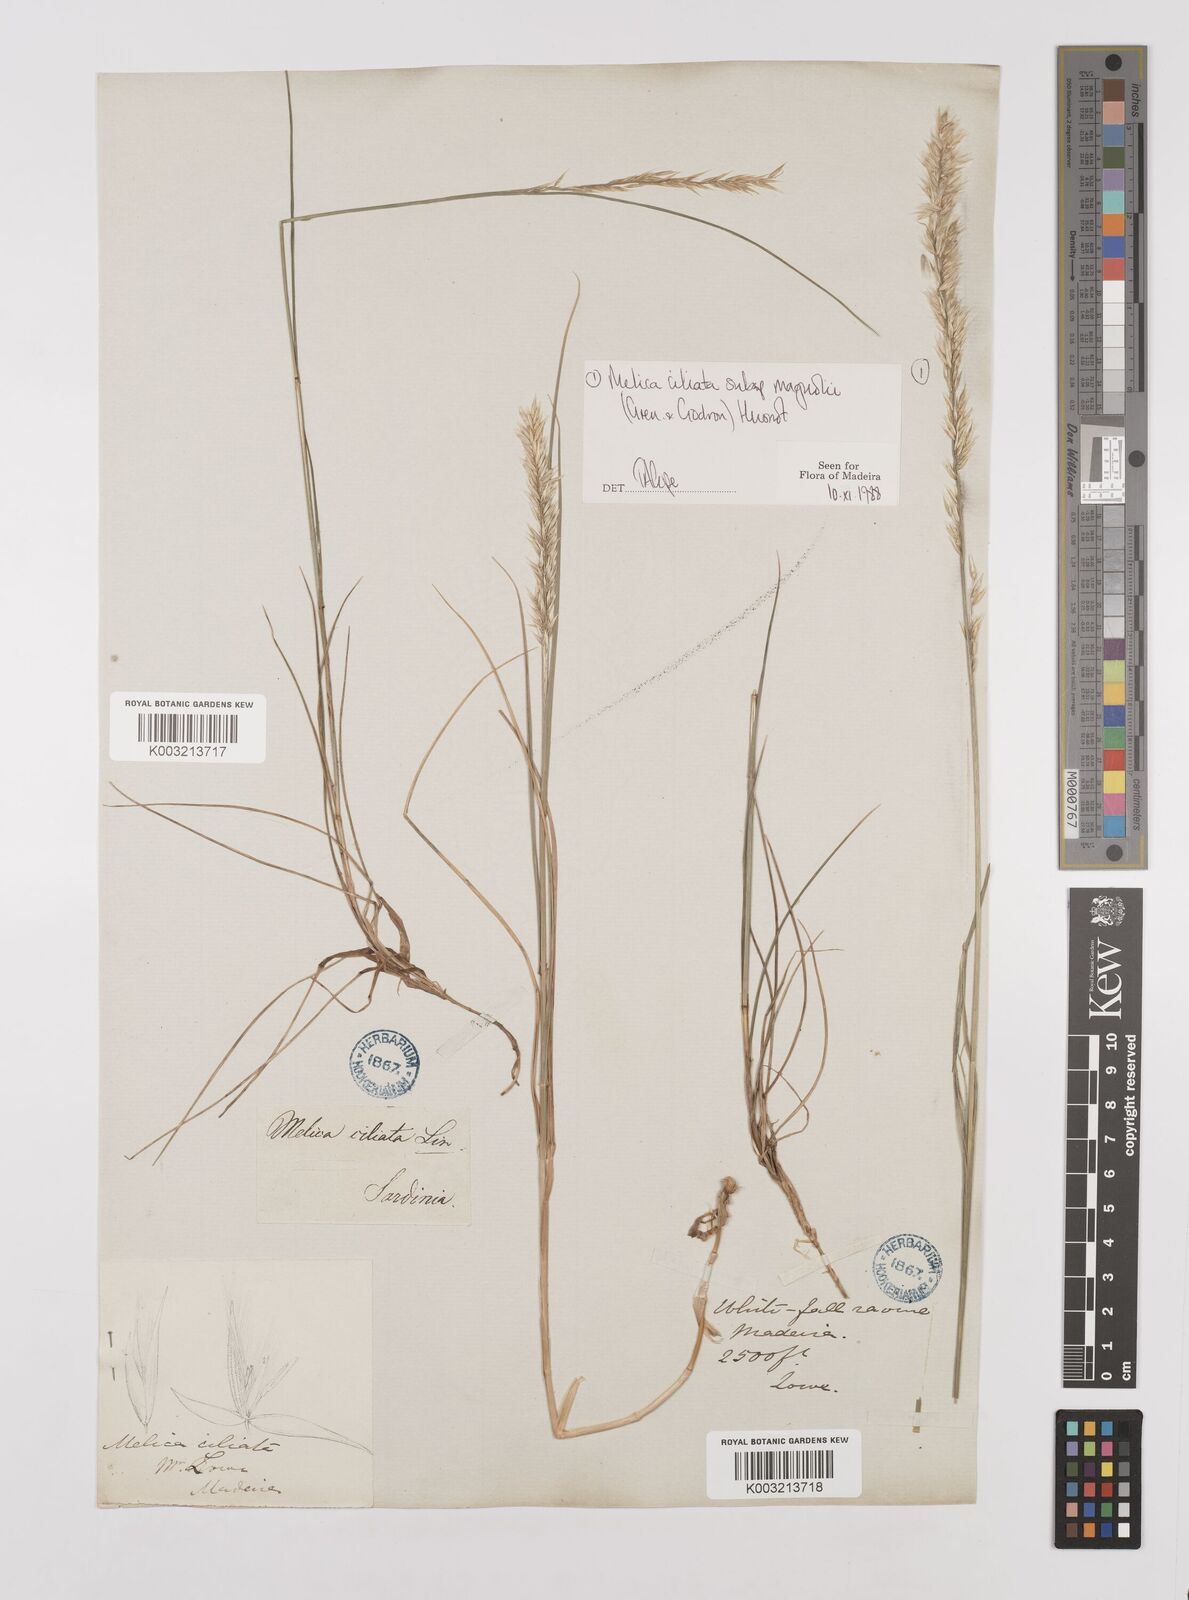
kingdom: Plantae
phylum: Tracheophyta
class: Liliopsida
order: Poales
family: Poaceae
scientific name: Poaceae
